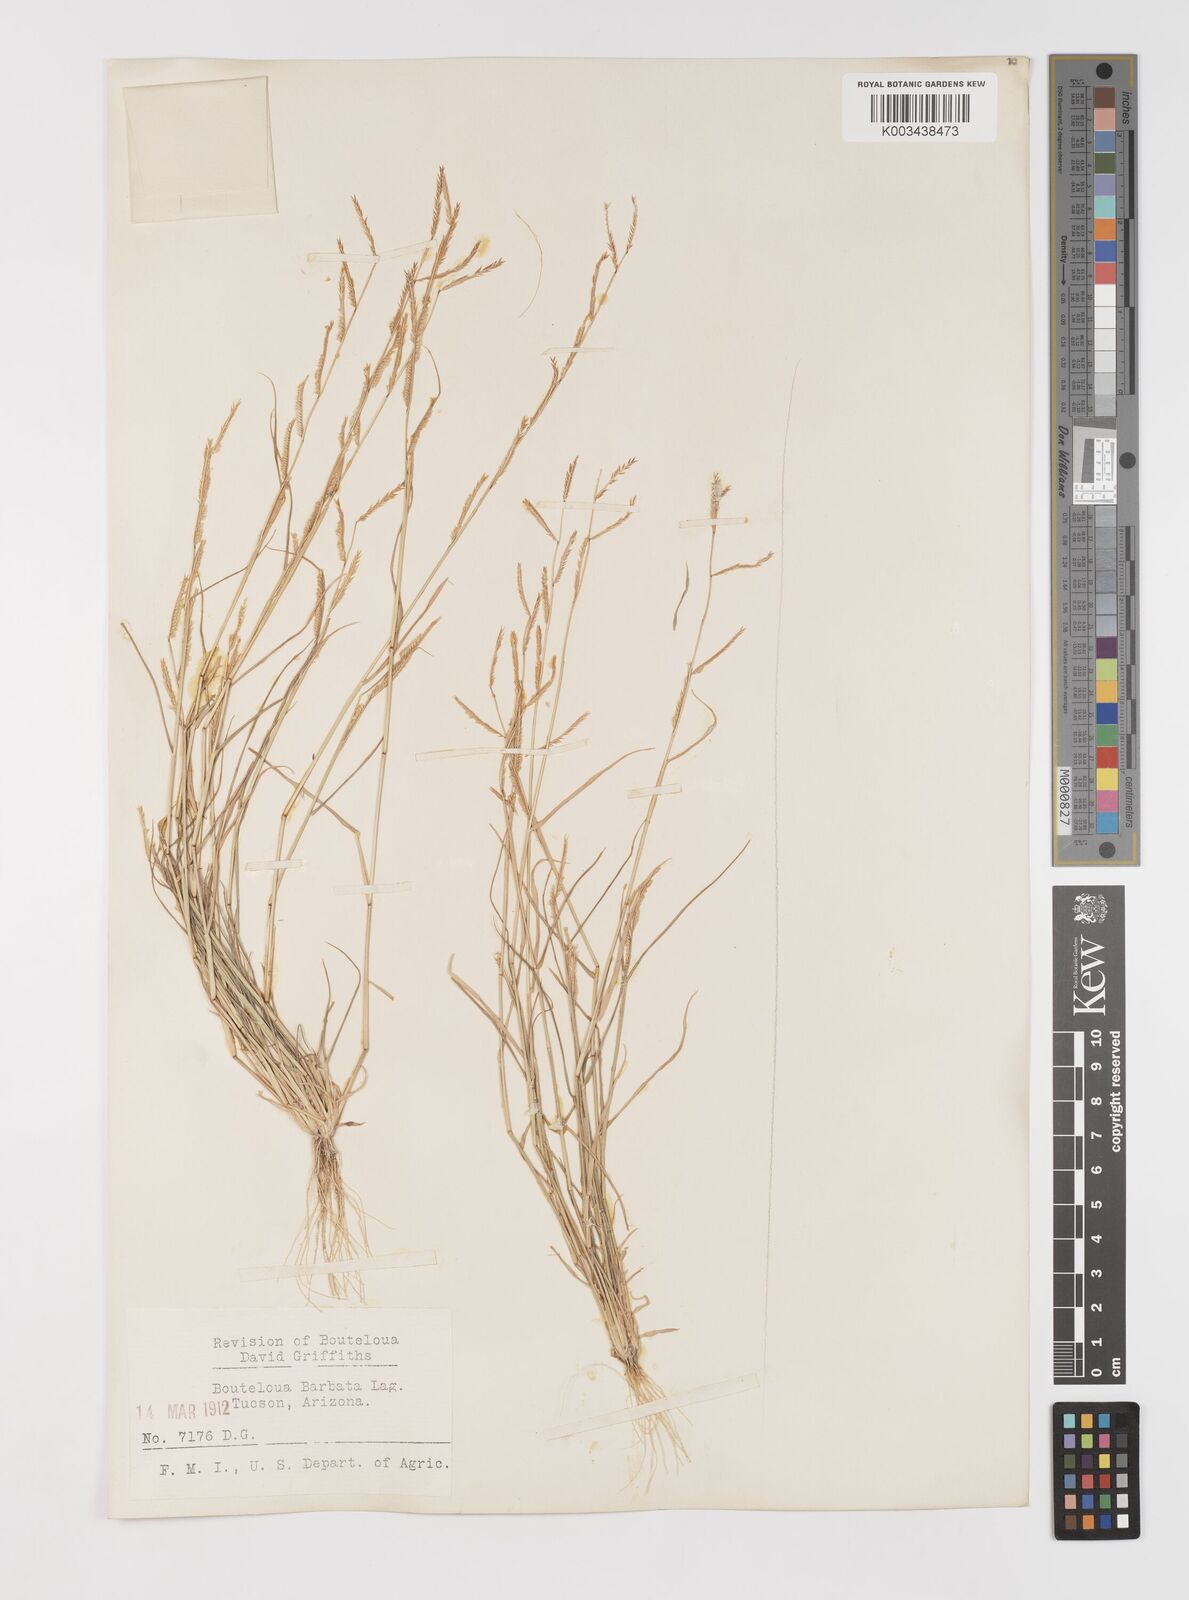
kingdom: Plantae
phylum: Tracheophyta
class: Liliopsida
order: Poales
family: Poaceae
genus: Bouteloua
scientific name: Bouteloua
